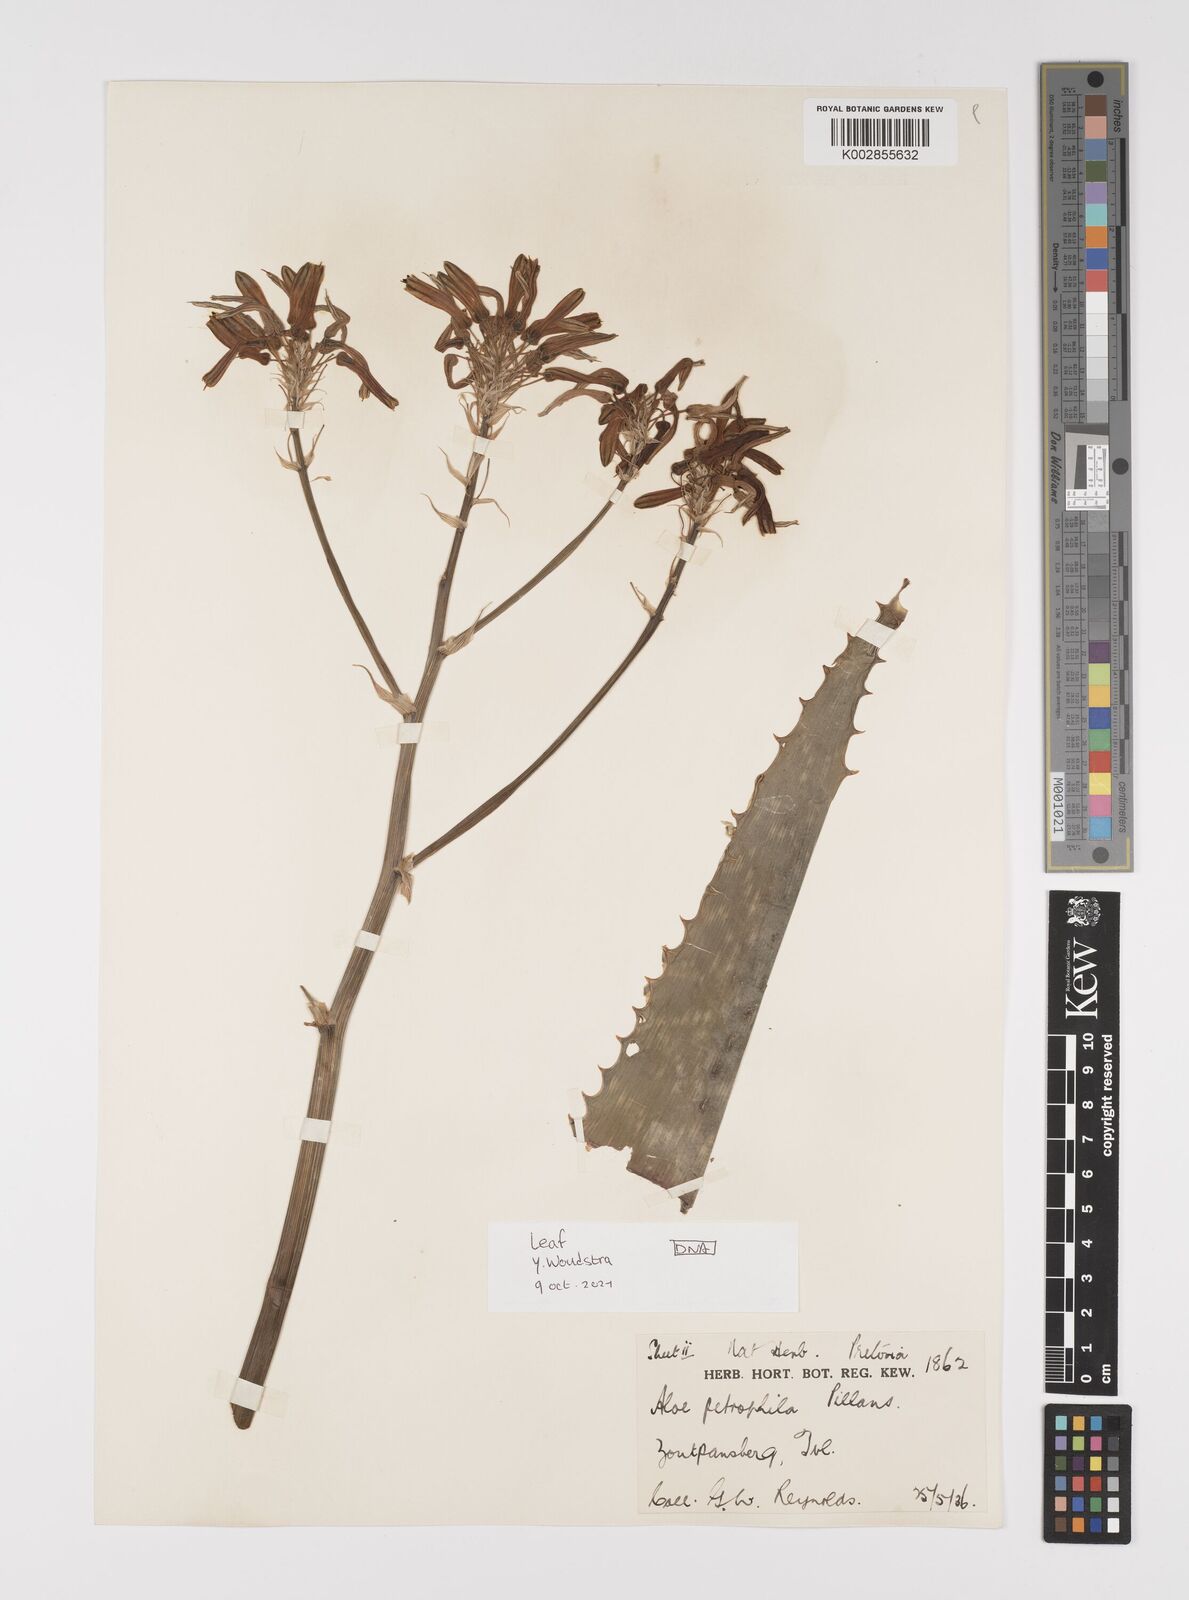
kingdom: Plantae
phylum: Tracheophyta
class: Liliopsida
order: Asparagales
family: Asphodelaceae
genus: Aloe
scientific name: Aloe petrophila
